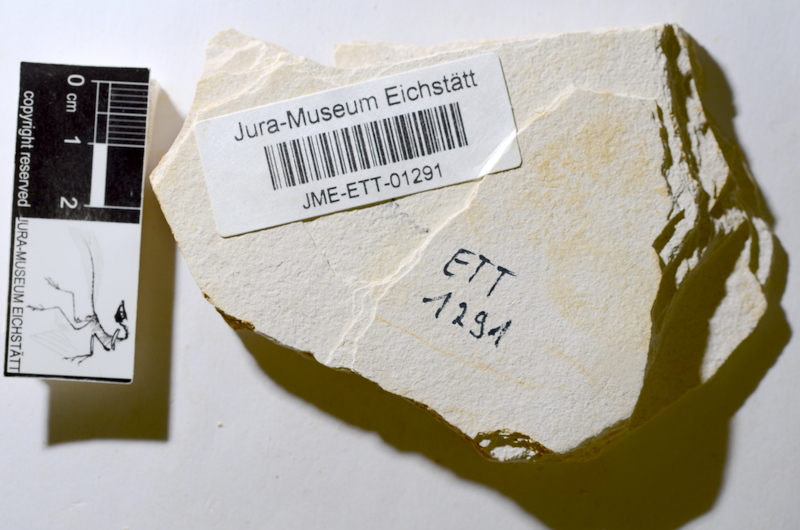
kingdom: Animalia
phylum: Chordata
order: Salmoniformes
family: Orthogonikleithridae
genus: Orthogonikleithrus
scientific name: Orthogonikleithrus hoelli
